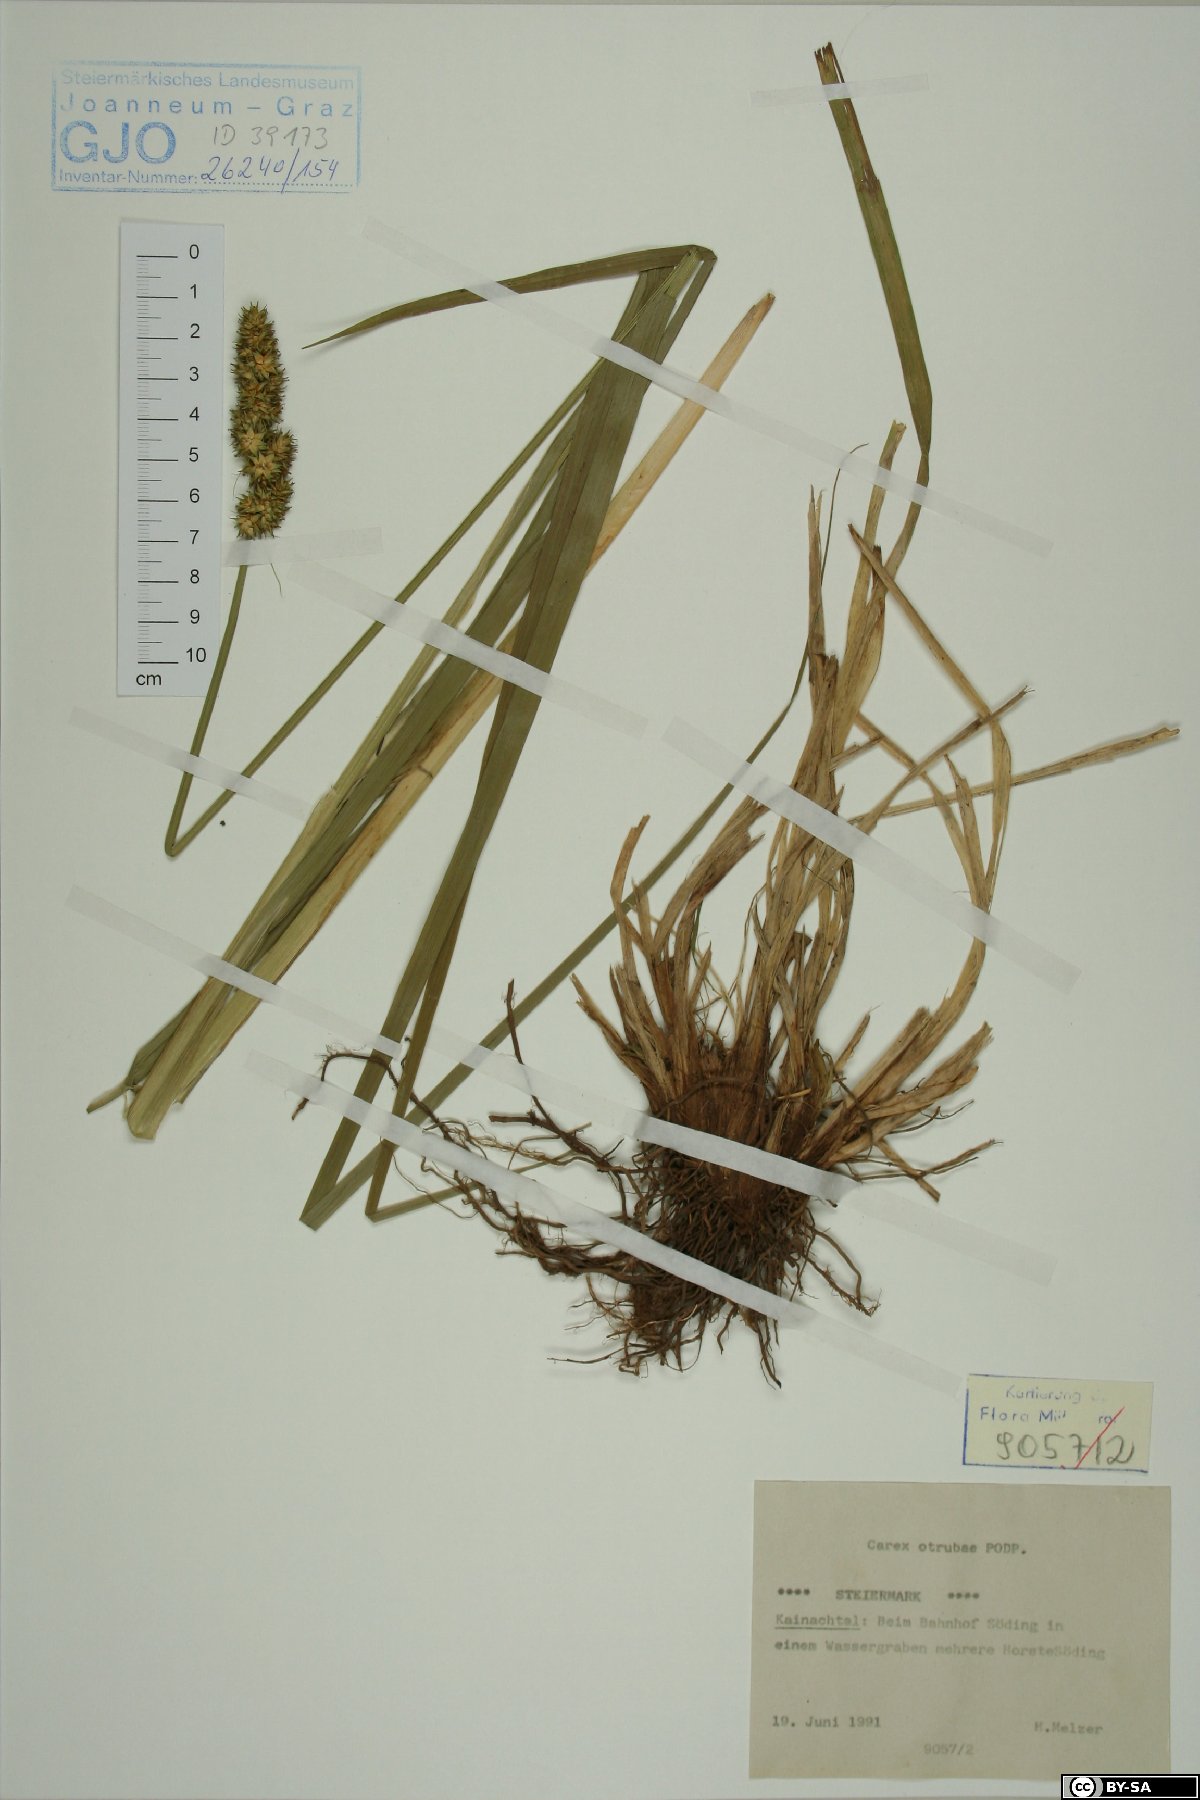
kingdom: Plantae
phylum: Tracheophyta
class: Liliopsida
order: Poales
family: Cyperaceae
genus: Carex
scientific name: Carex otrubae
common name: False fox-sedge
